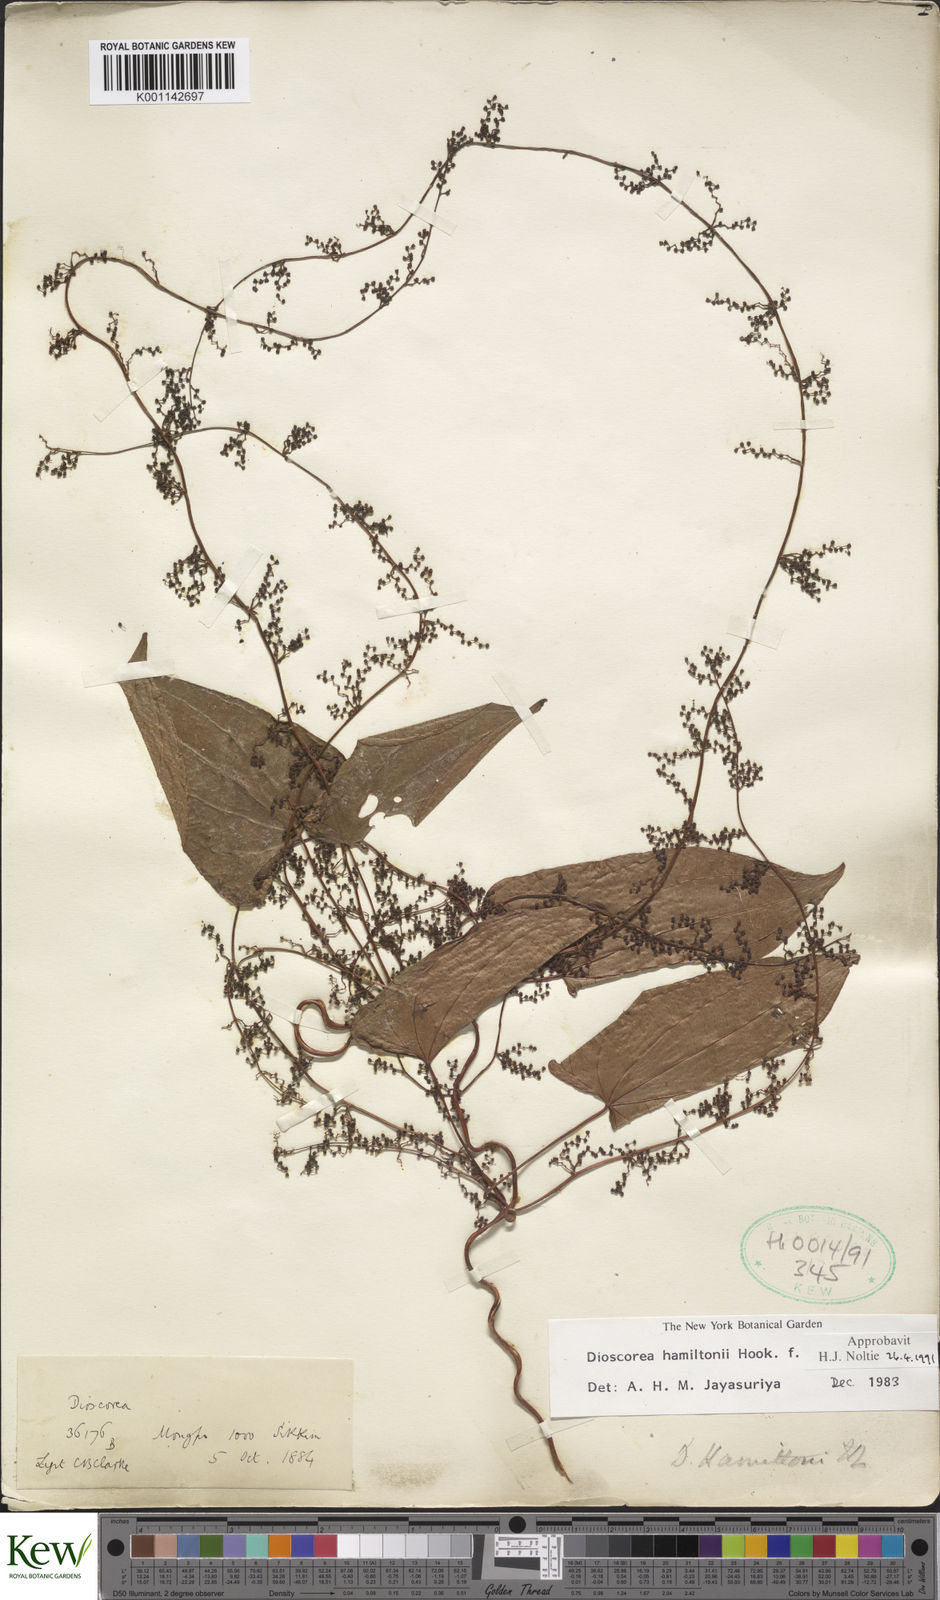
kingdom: Plantae
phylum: Tracheophyta
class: Liliopsida
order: Dioscoreales
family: Dioscoreaceae
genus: Dioscorea
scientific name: Dioscorea hamiltonii
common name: Mountain yam
